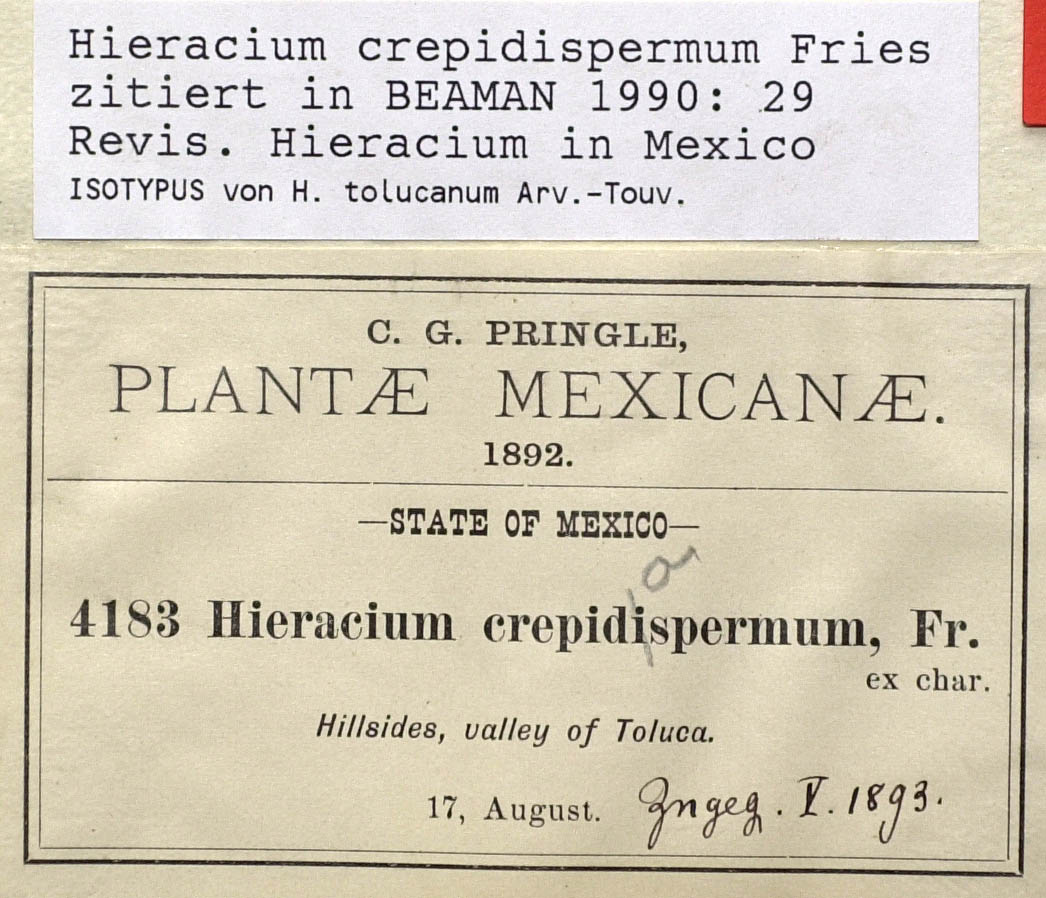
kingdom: Plantae
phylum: Tracheophyta
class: Magnoliopsida
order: Asterales
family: Asteraceae
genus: Hieracium
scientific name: Hieracium crepidispermum
